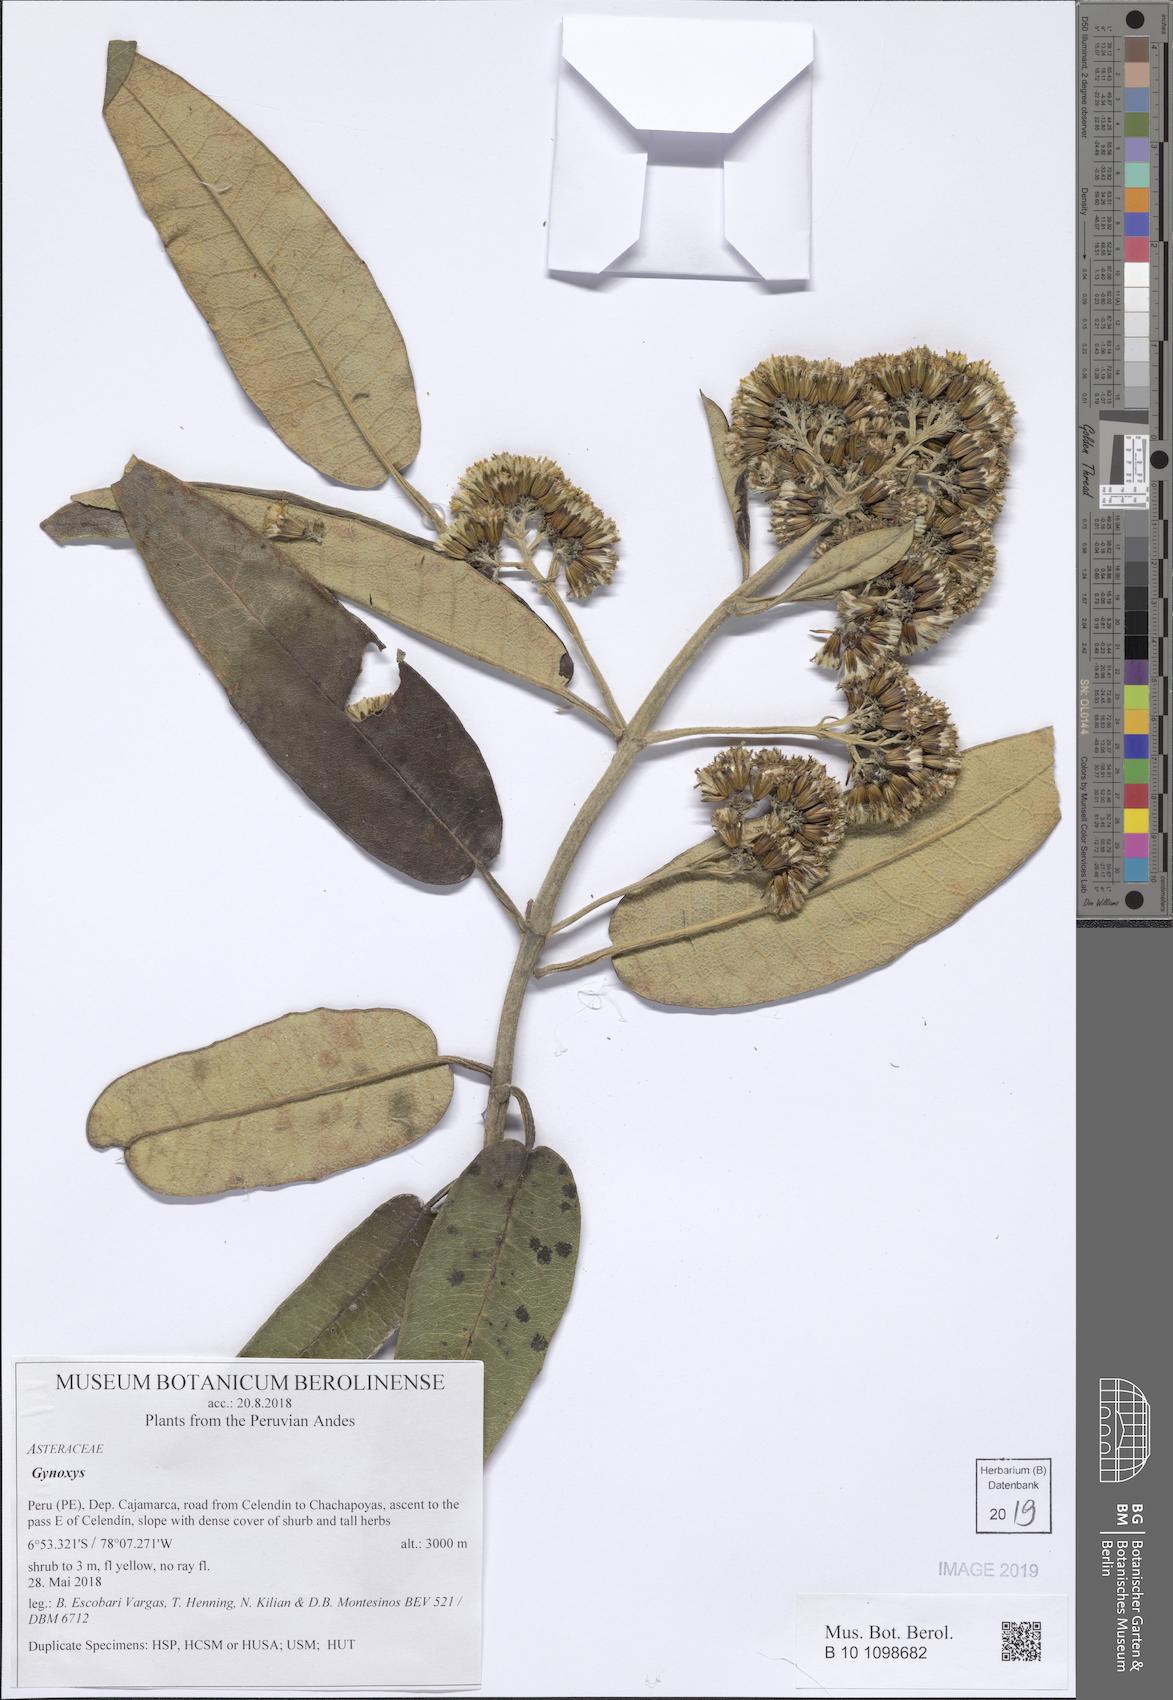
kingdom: Plantae
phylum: Tracheophyta
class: Magnoliopsida
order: Asterales
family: Asteraceae
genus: Gynoxys
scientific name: Gynoxys
